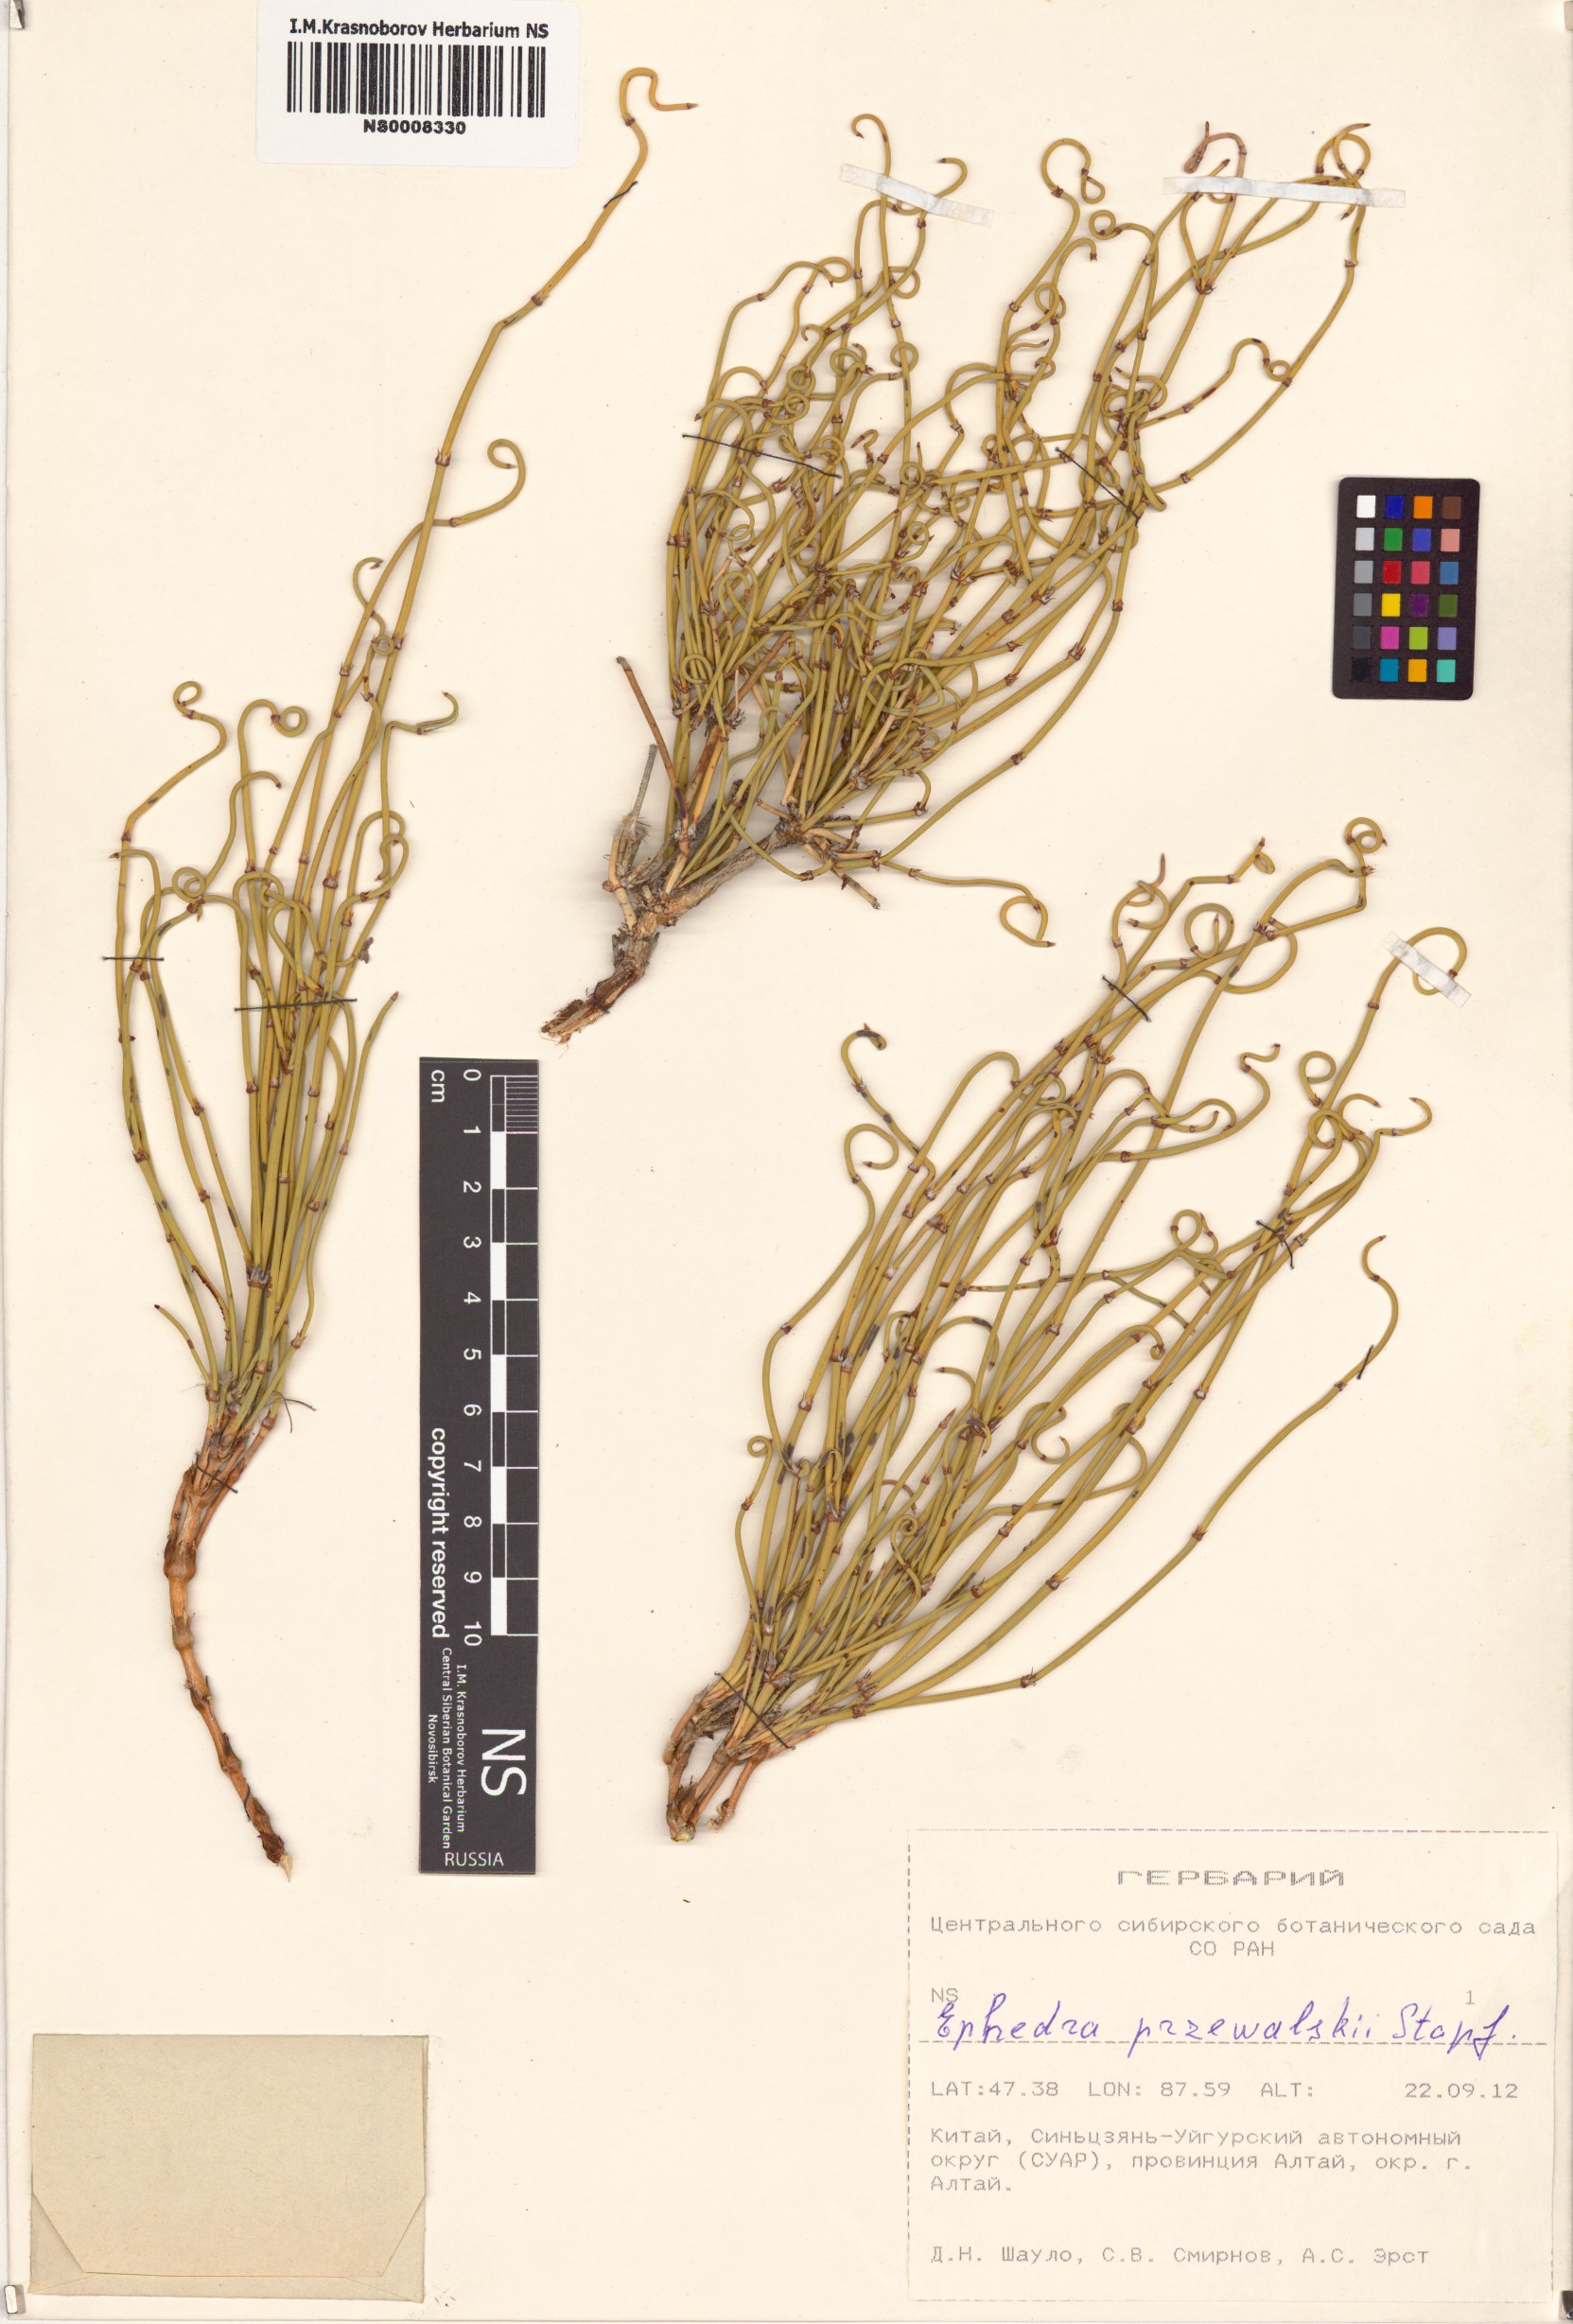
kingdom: Plantae
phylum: Tracheophyta
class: Gnetopsida
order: Ephedrales
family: Ephedraceae
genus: Ephedra
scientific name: Ephedra przewalskii
